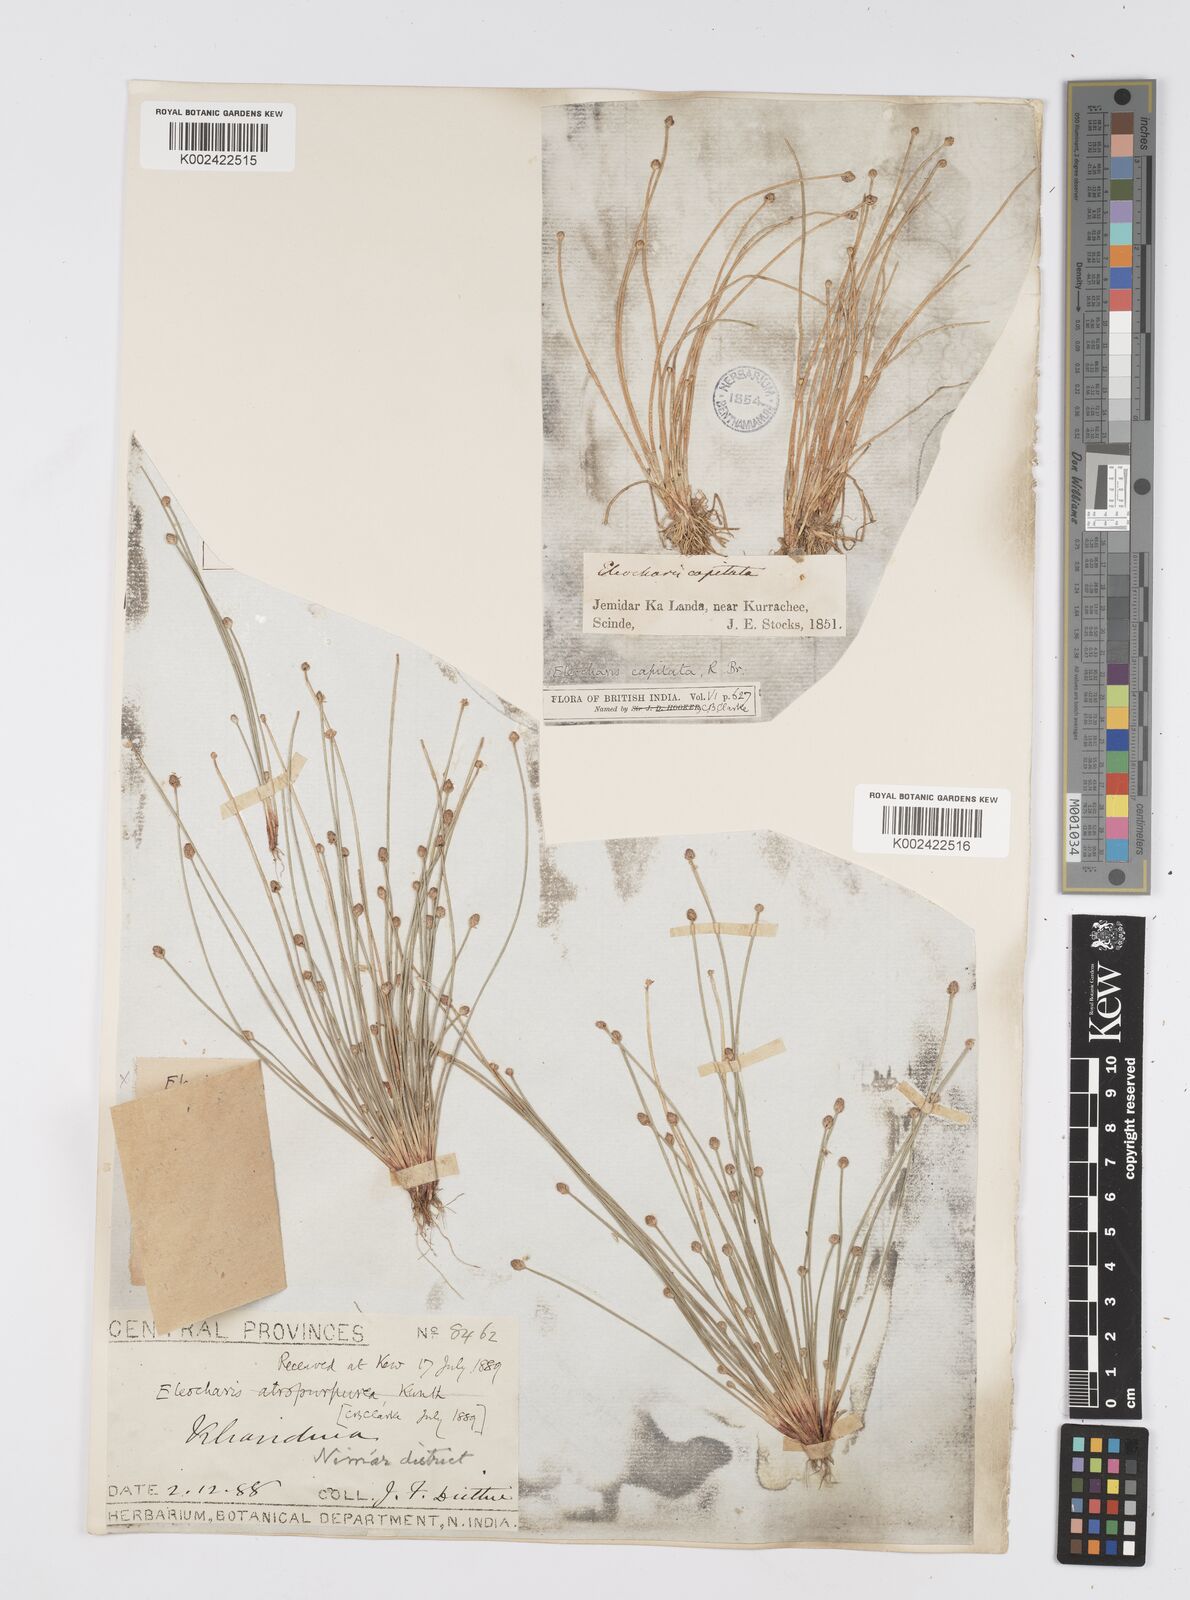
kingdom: Plantae
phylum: Tracheophyta
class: Liliopsida
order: Poales
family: Cyperaceae
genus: Eleocharis
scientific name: Eleocharis geniculata
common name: Canada spikesedge
